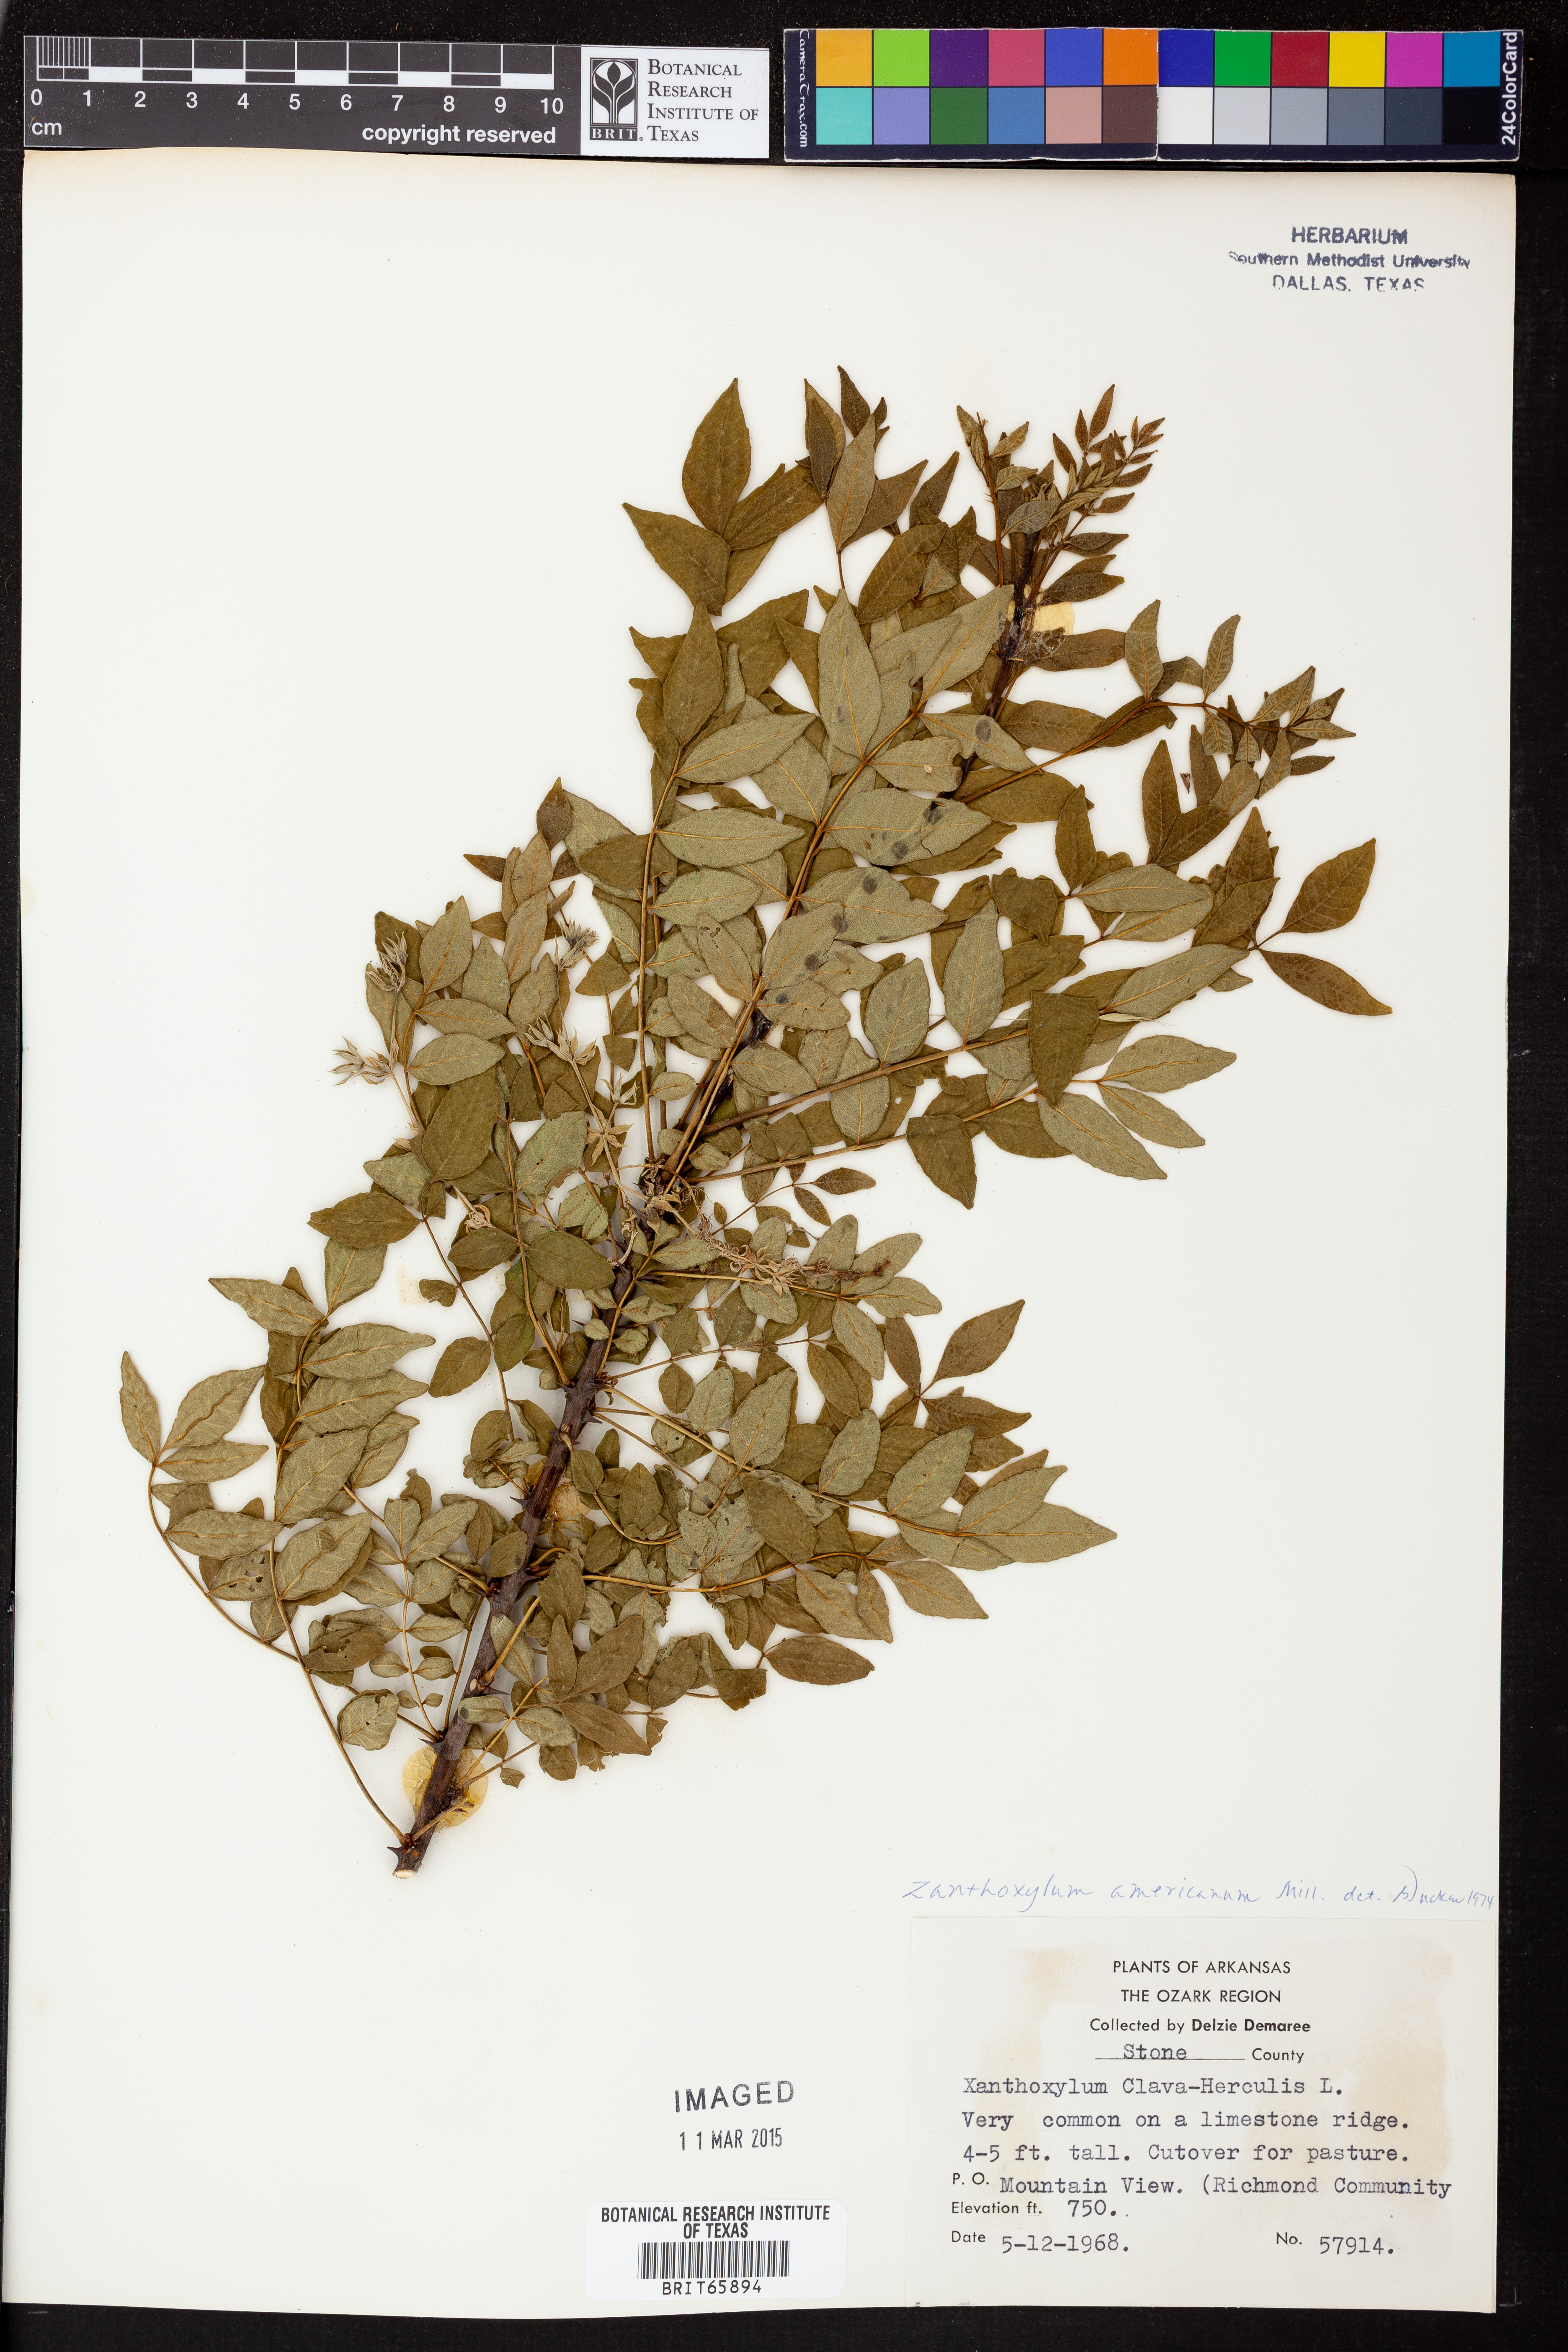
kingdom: Plantae
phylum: Tracheophyta
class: Magnoliopsida
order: Sapindales
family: Rutaceae
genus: Zanthoxylum
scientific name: Zanthoxylum americanum
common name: Northern prickly-ash
